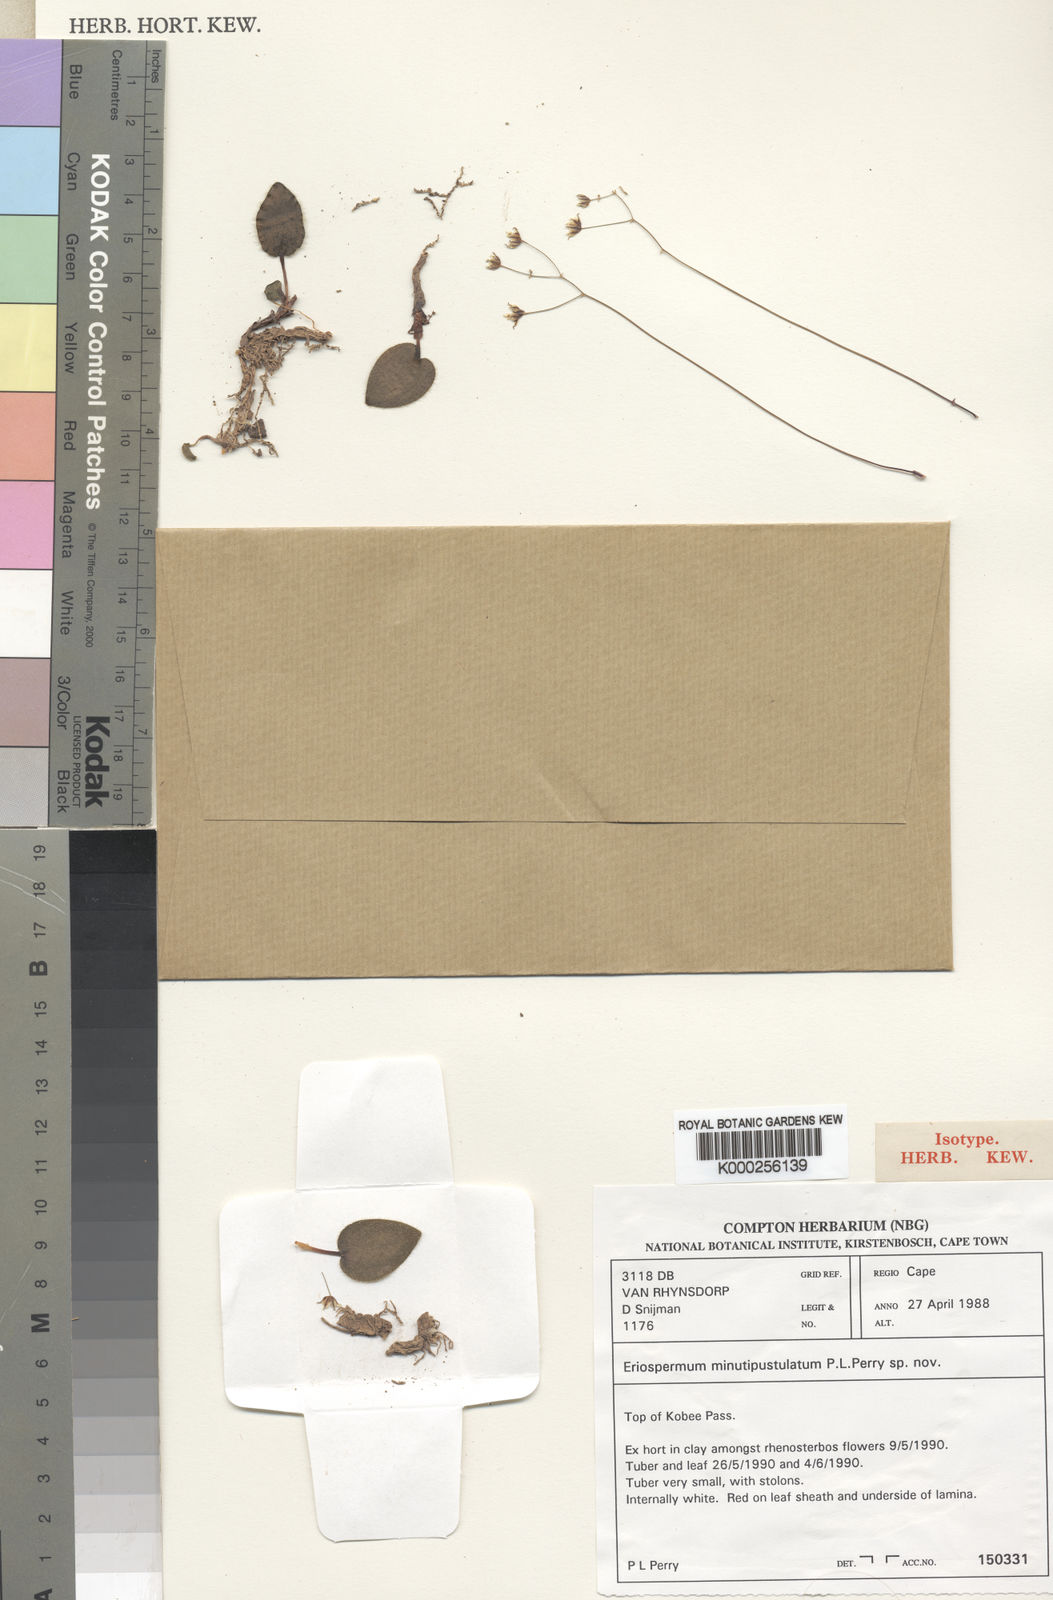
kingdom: Plantae
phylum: Tracheophyta
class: Liliopsida
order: Asparagales
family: Asparagaceae
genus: Eriospermum
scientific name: Eriospermum minutipustulatum
